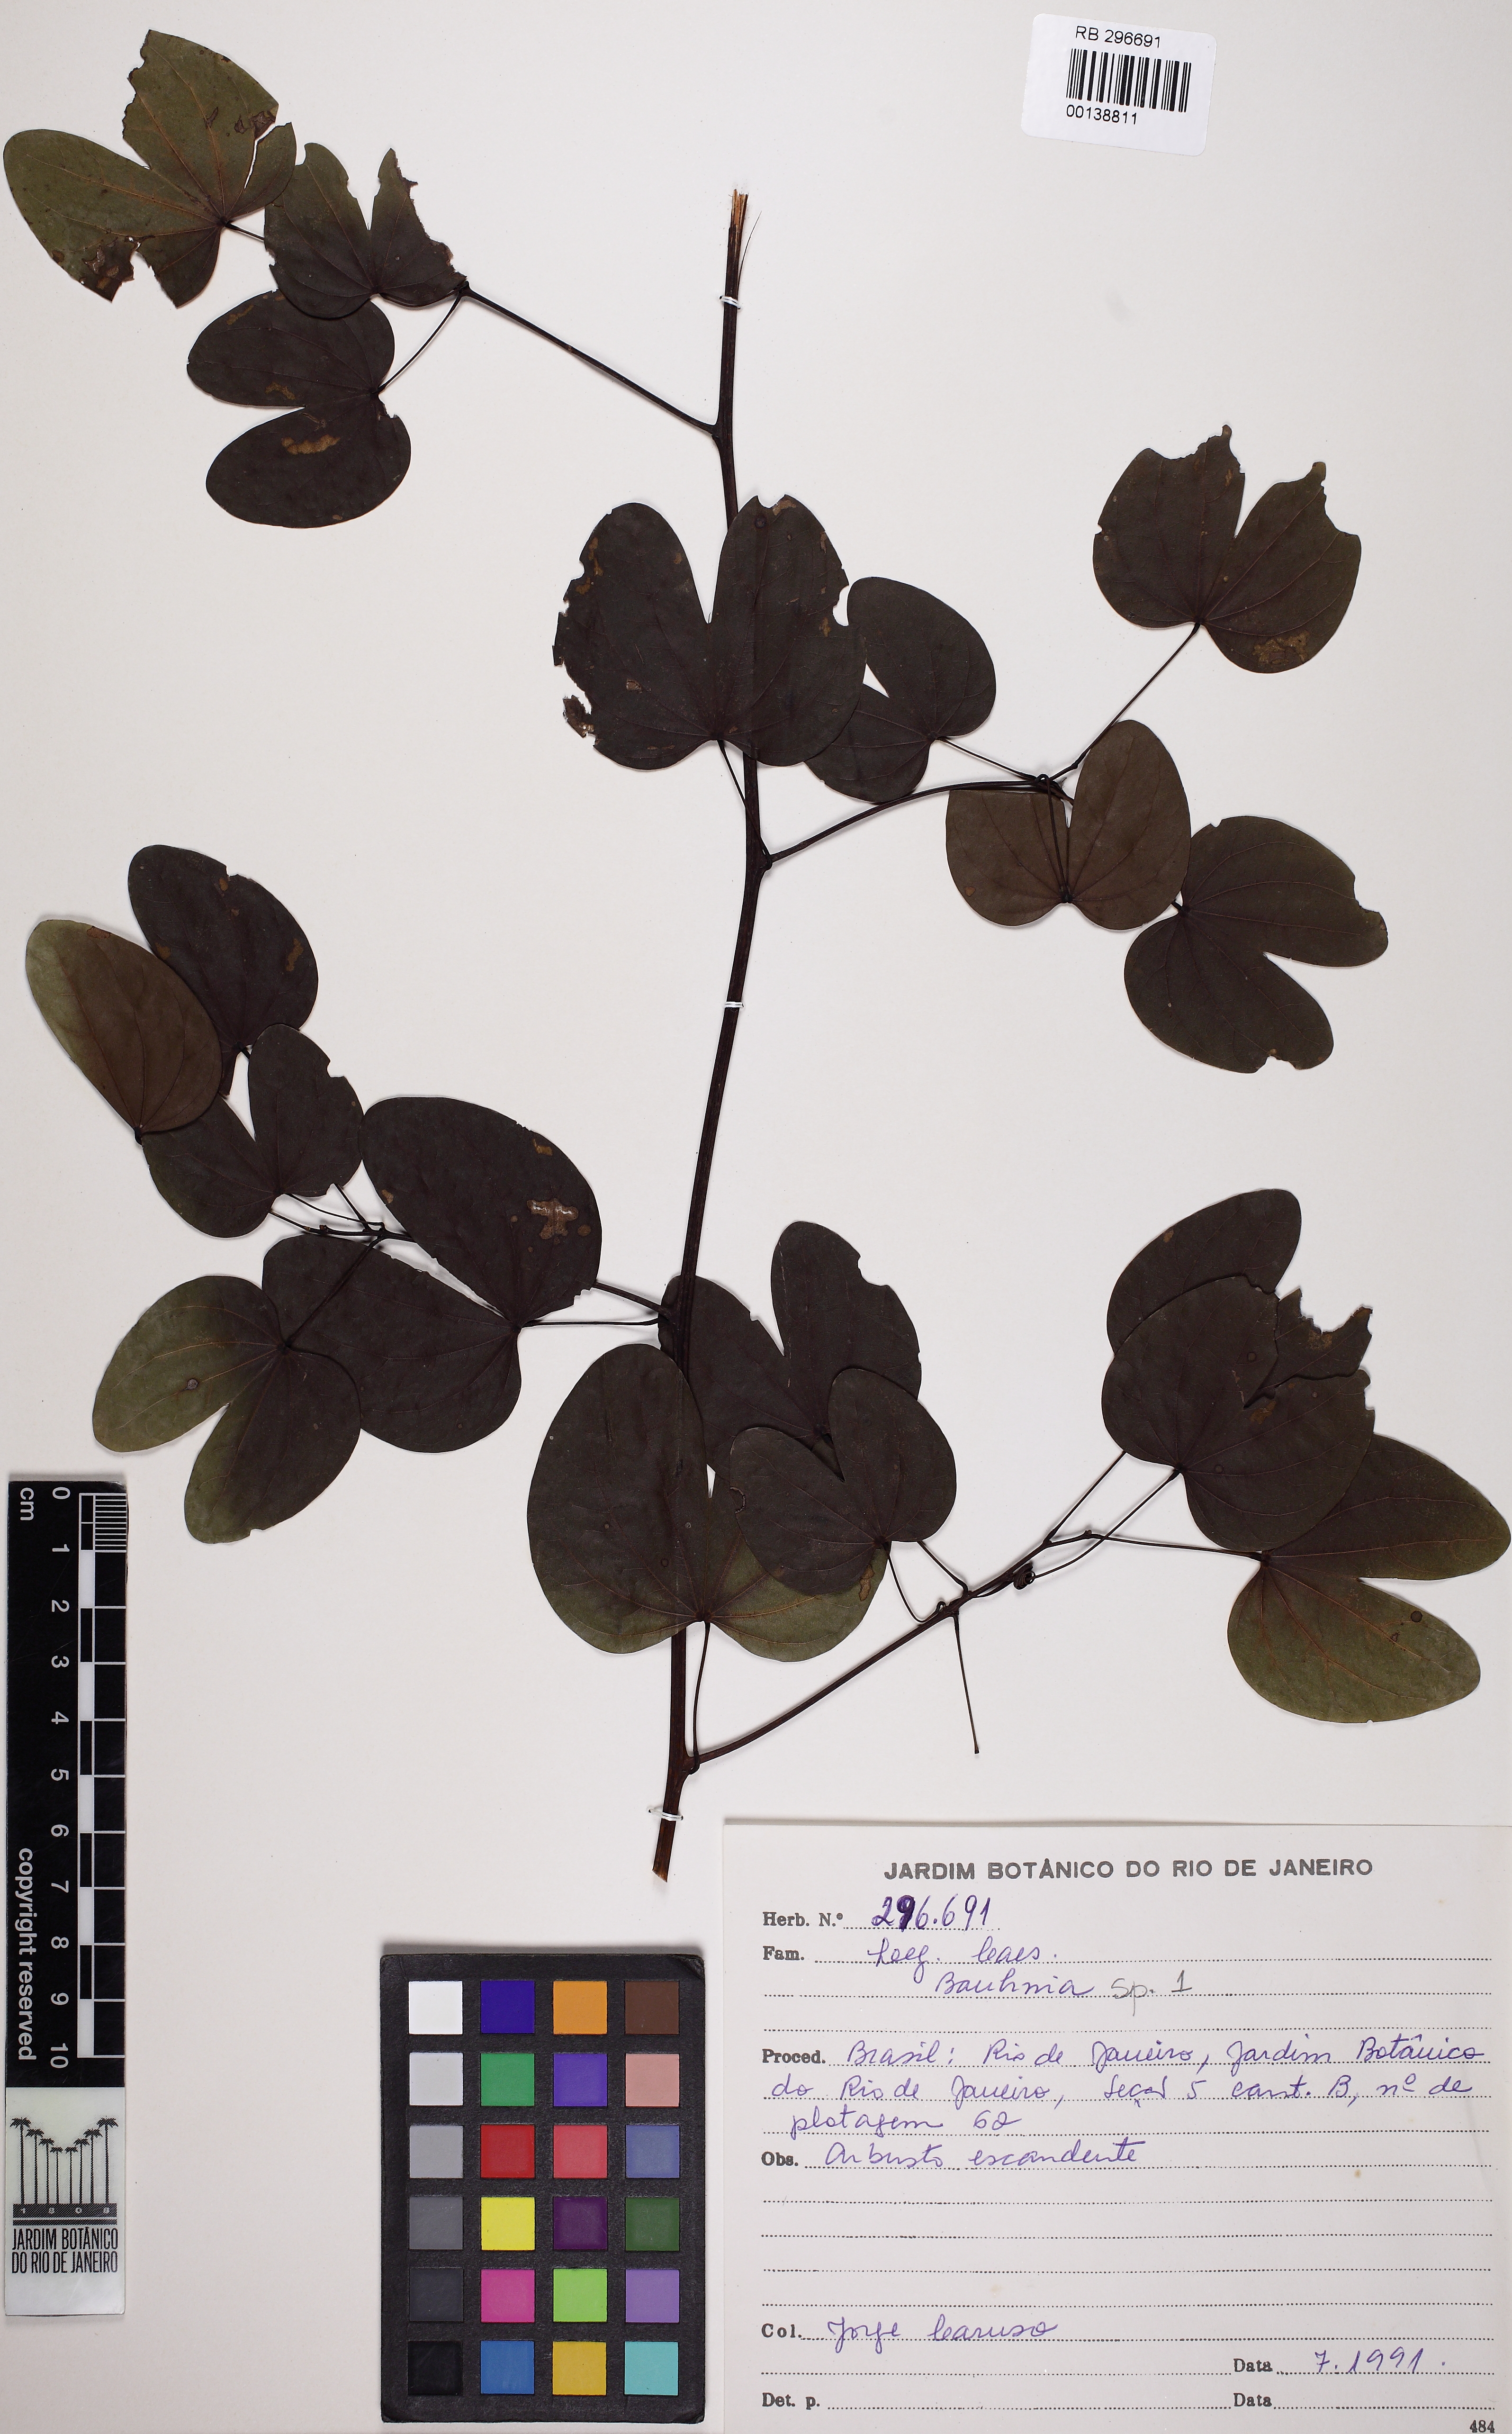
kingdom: Plantae
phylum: Tracheophyta
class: Magnoliopsida
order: Fabales
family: Fabaceae
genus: Schnella
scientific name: Schnella macrostachya
